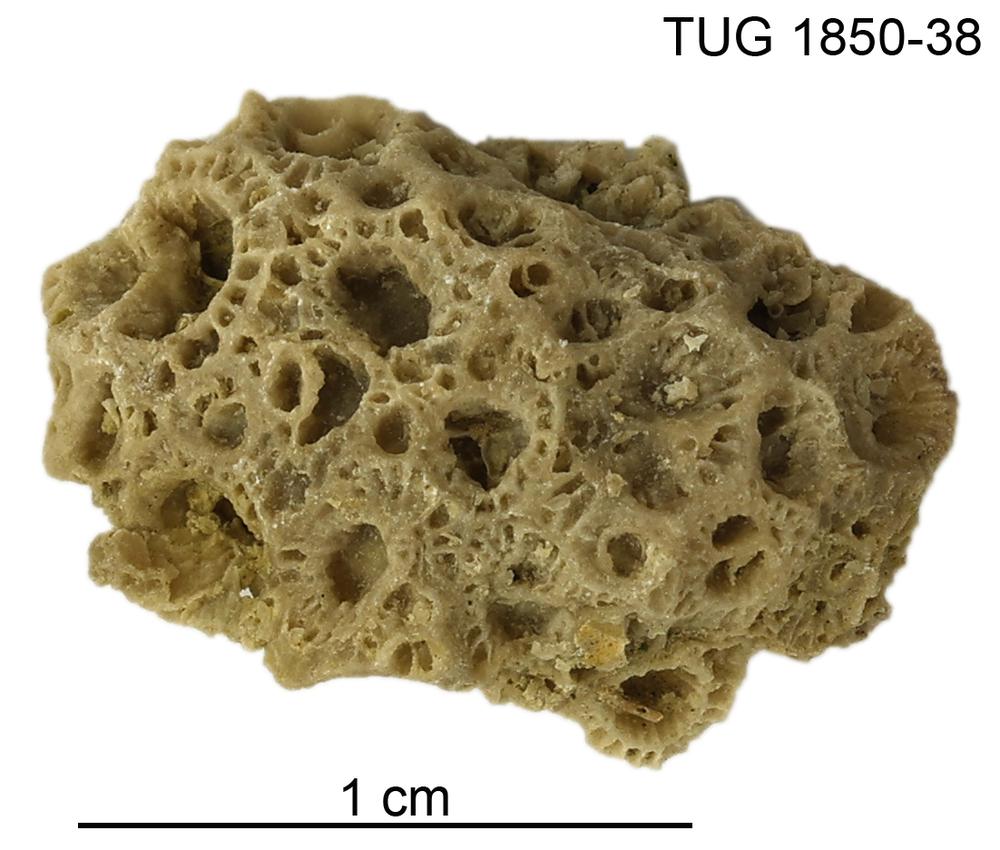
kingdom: Animalia
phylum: Cnidaria
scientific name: Cnidaria
